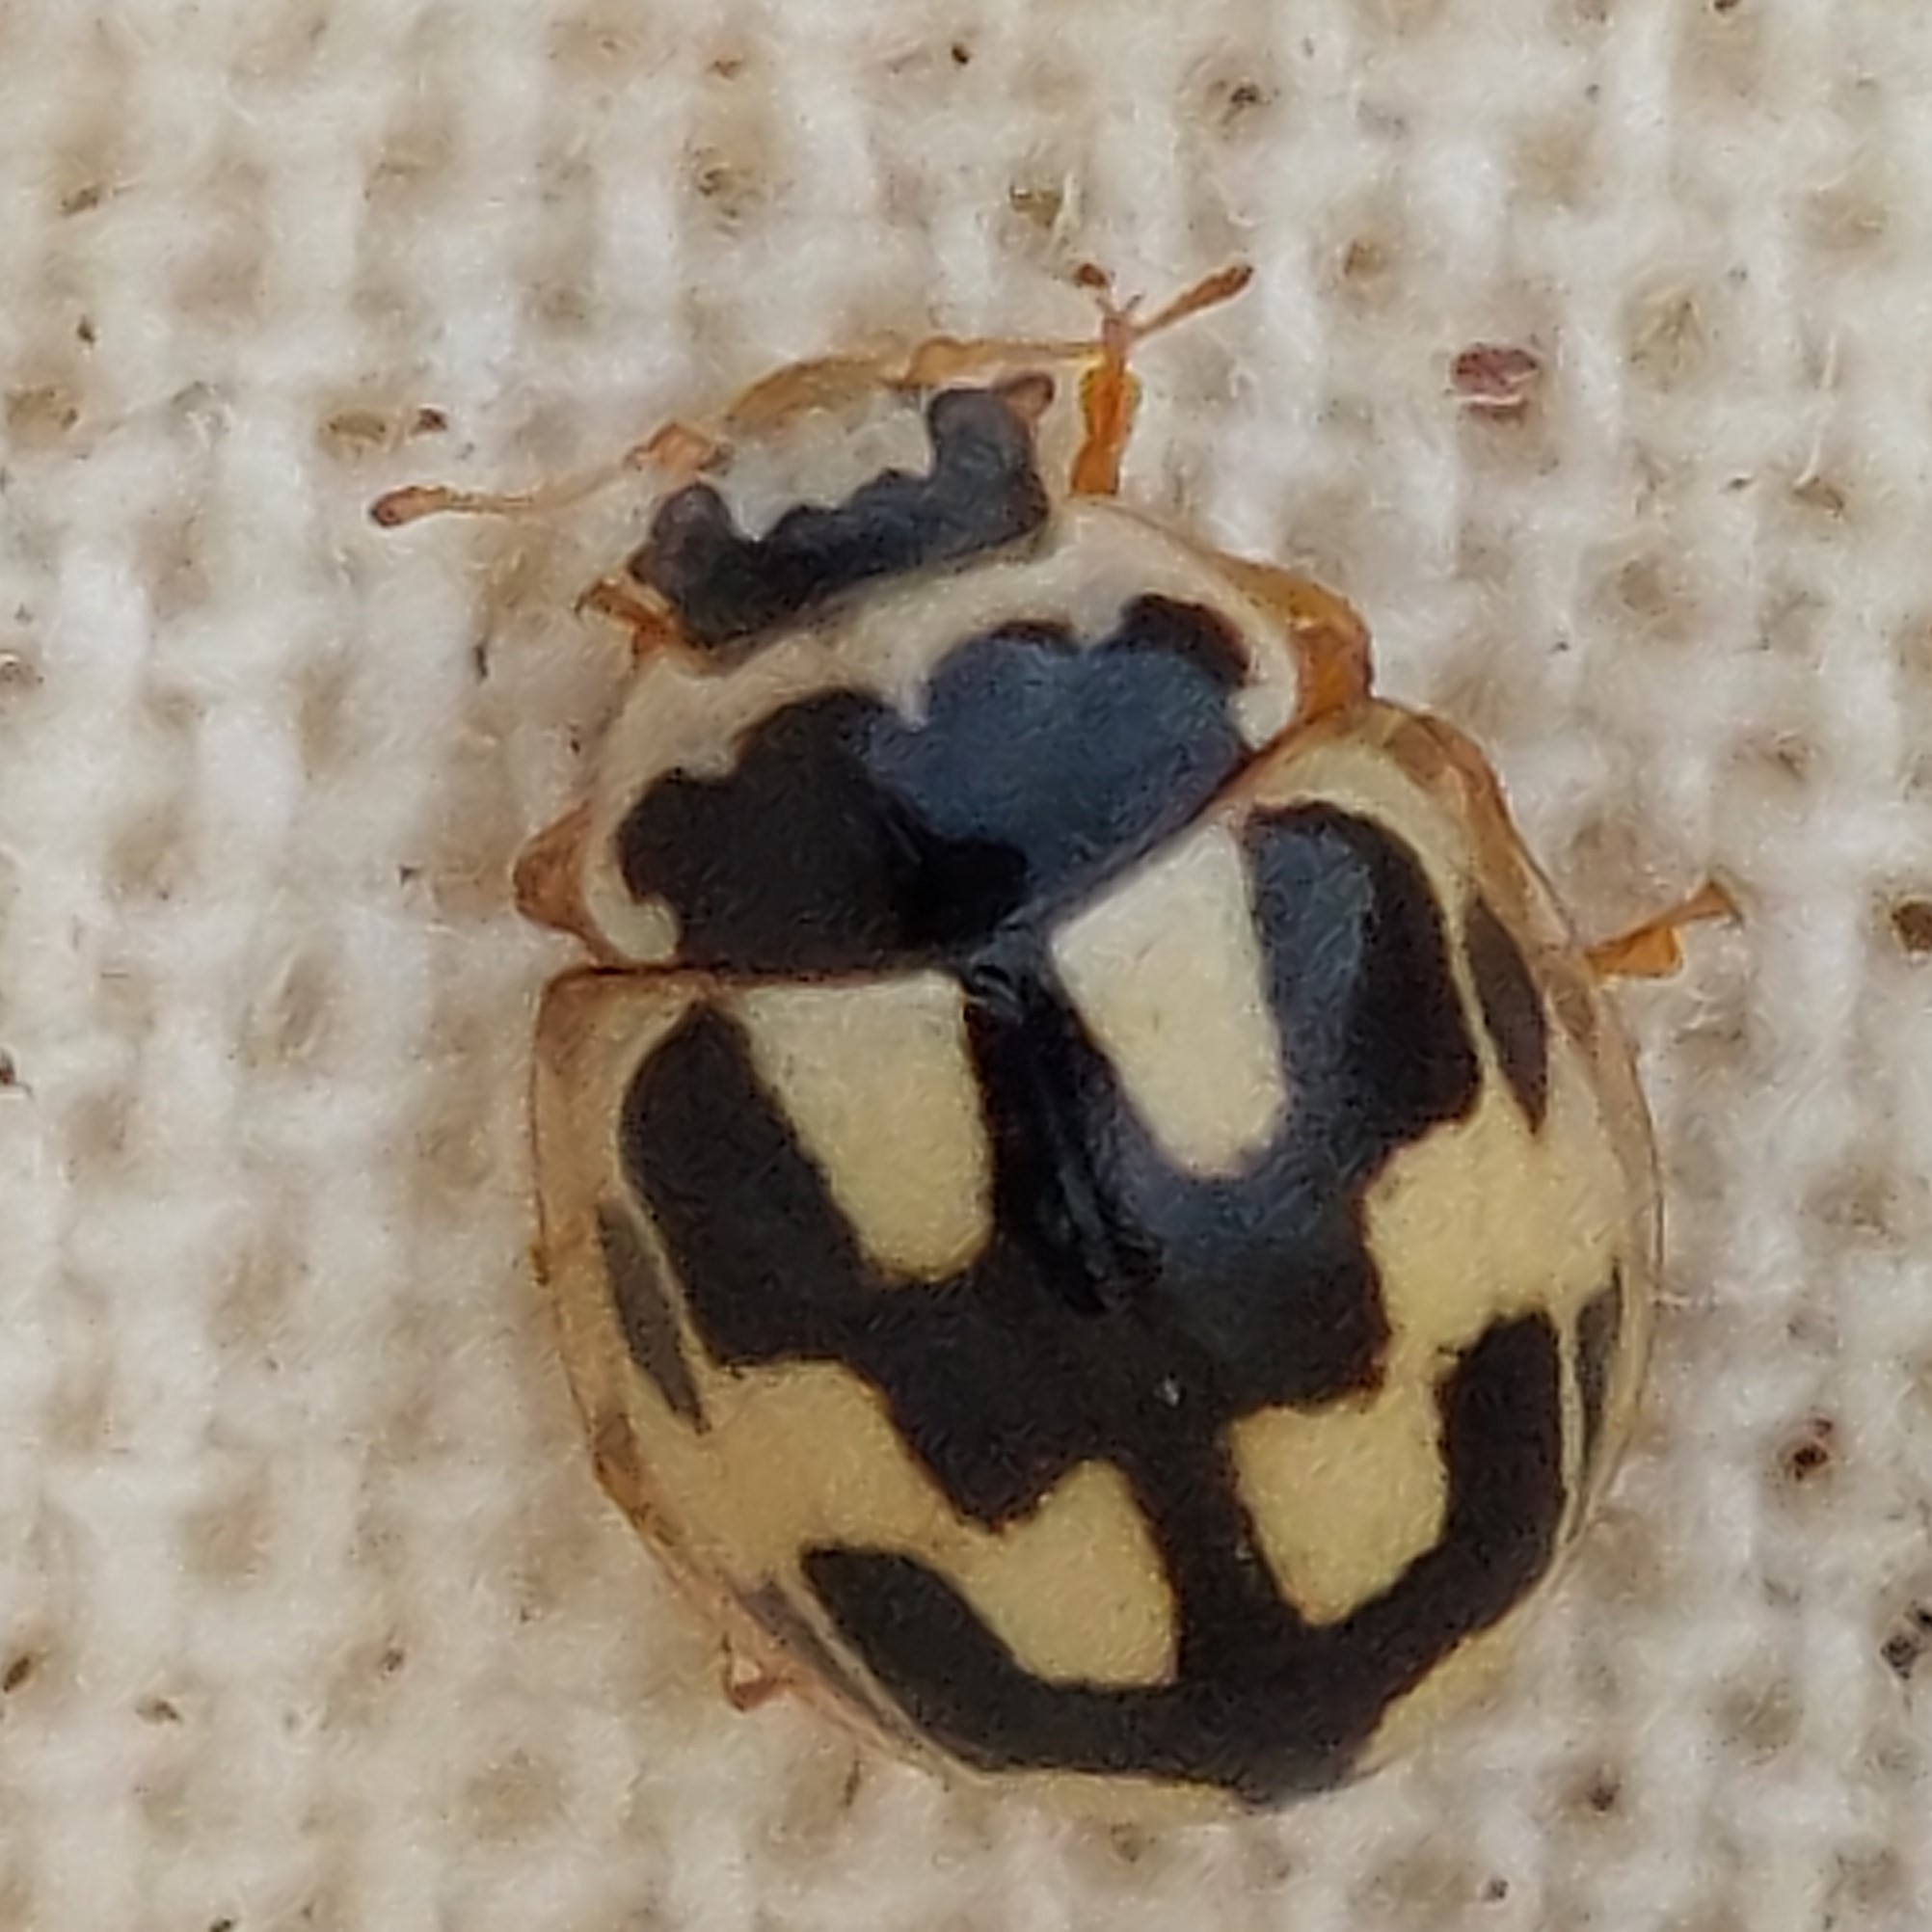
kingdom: Animalia
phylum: Arthropoda
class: Insecta
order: Coleoptera
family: Coccinellidae
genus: Propylaea
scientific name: Propylaea quatuordecimpunctata
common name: Skakbræt
